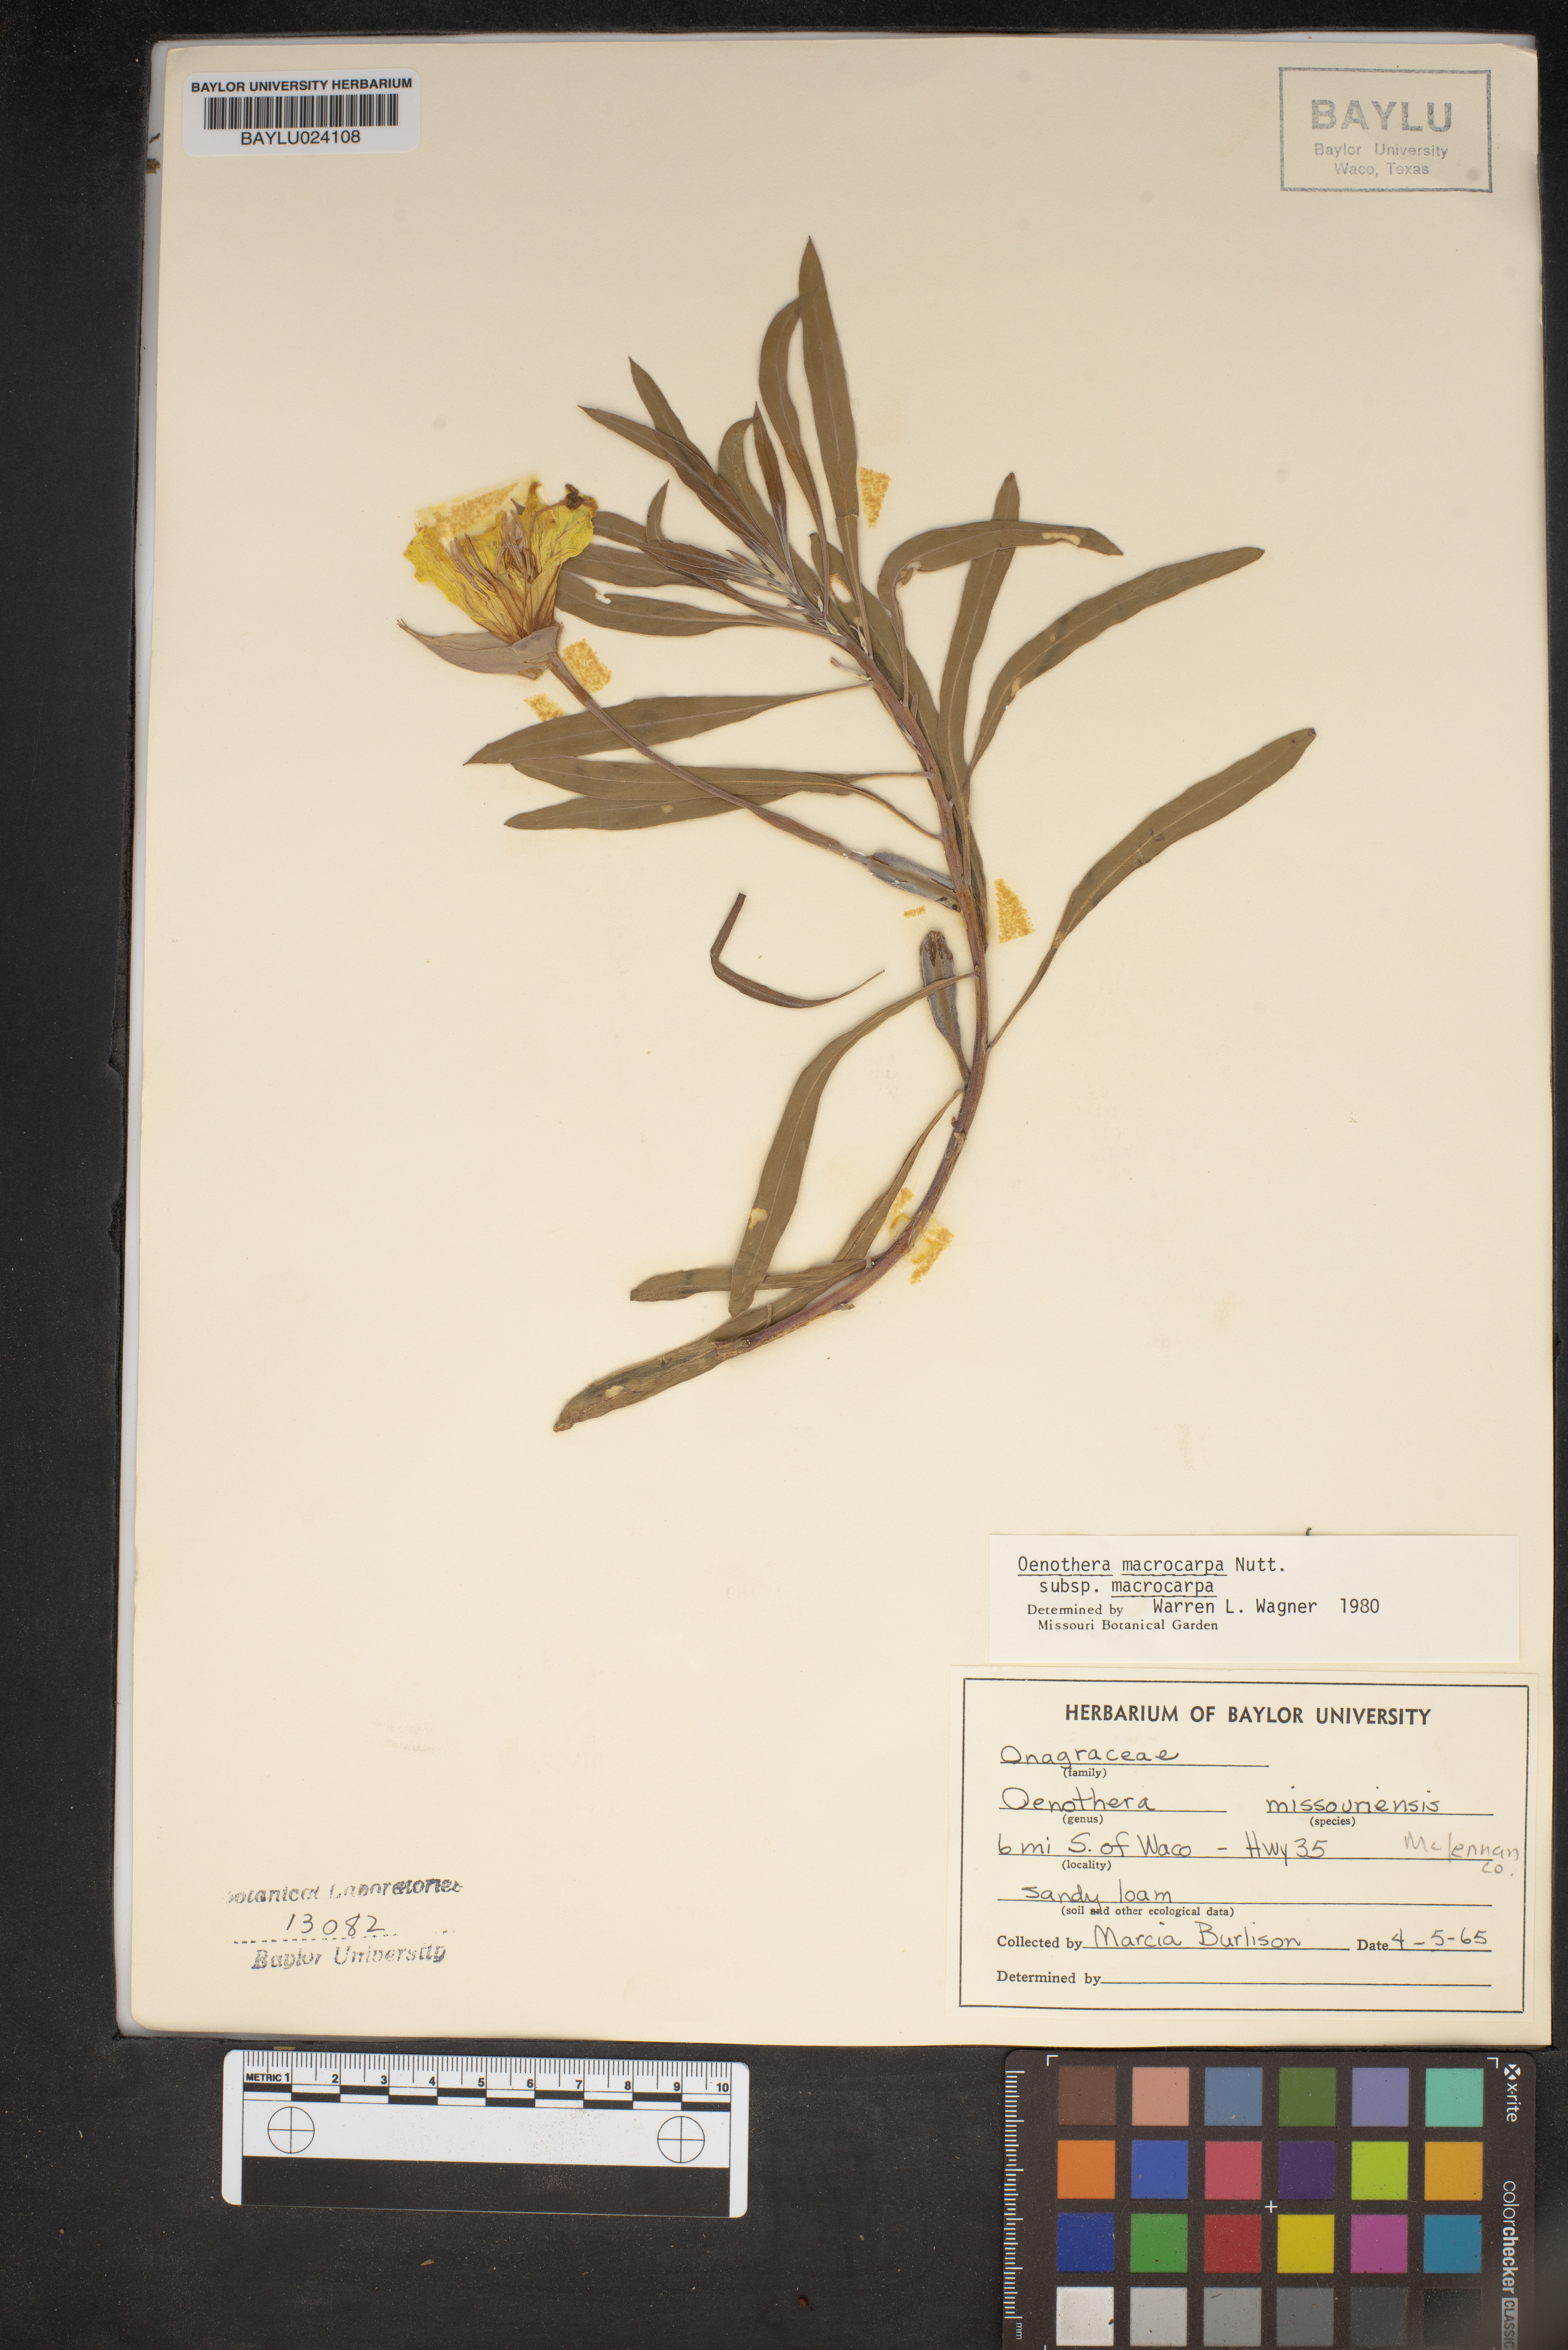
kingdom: Plantae
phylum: Tracheophyta
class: Magnoliopsida
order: Myrtales
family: Onagraceae
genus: Oenothera
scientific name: Oenothera macrocarpa
